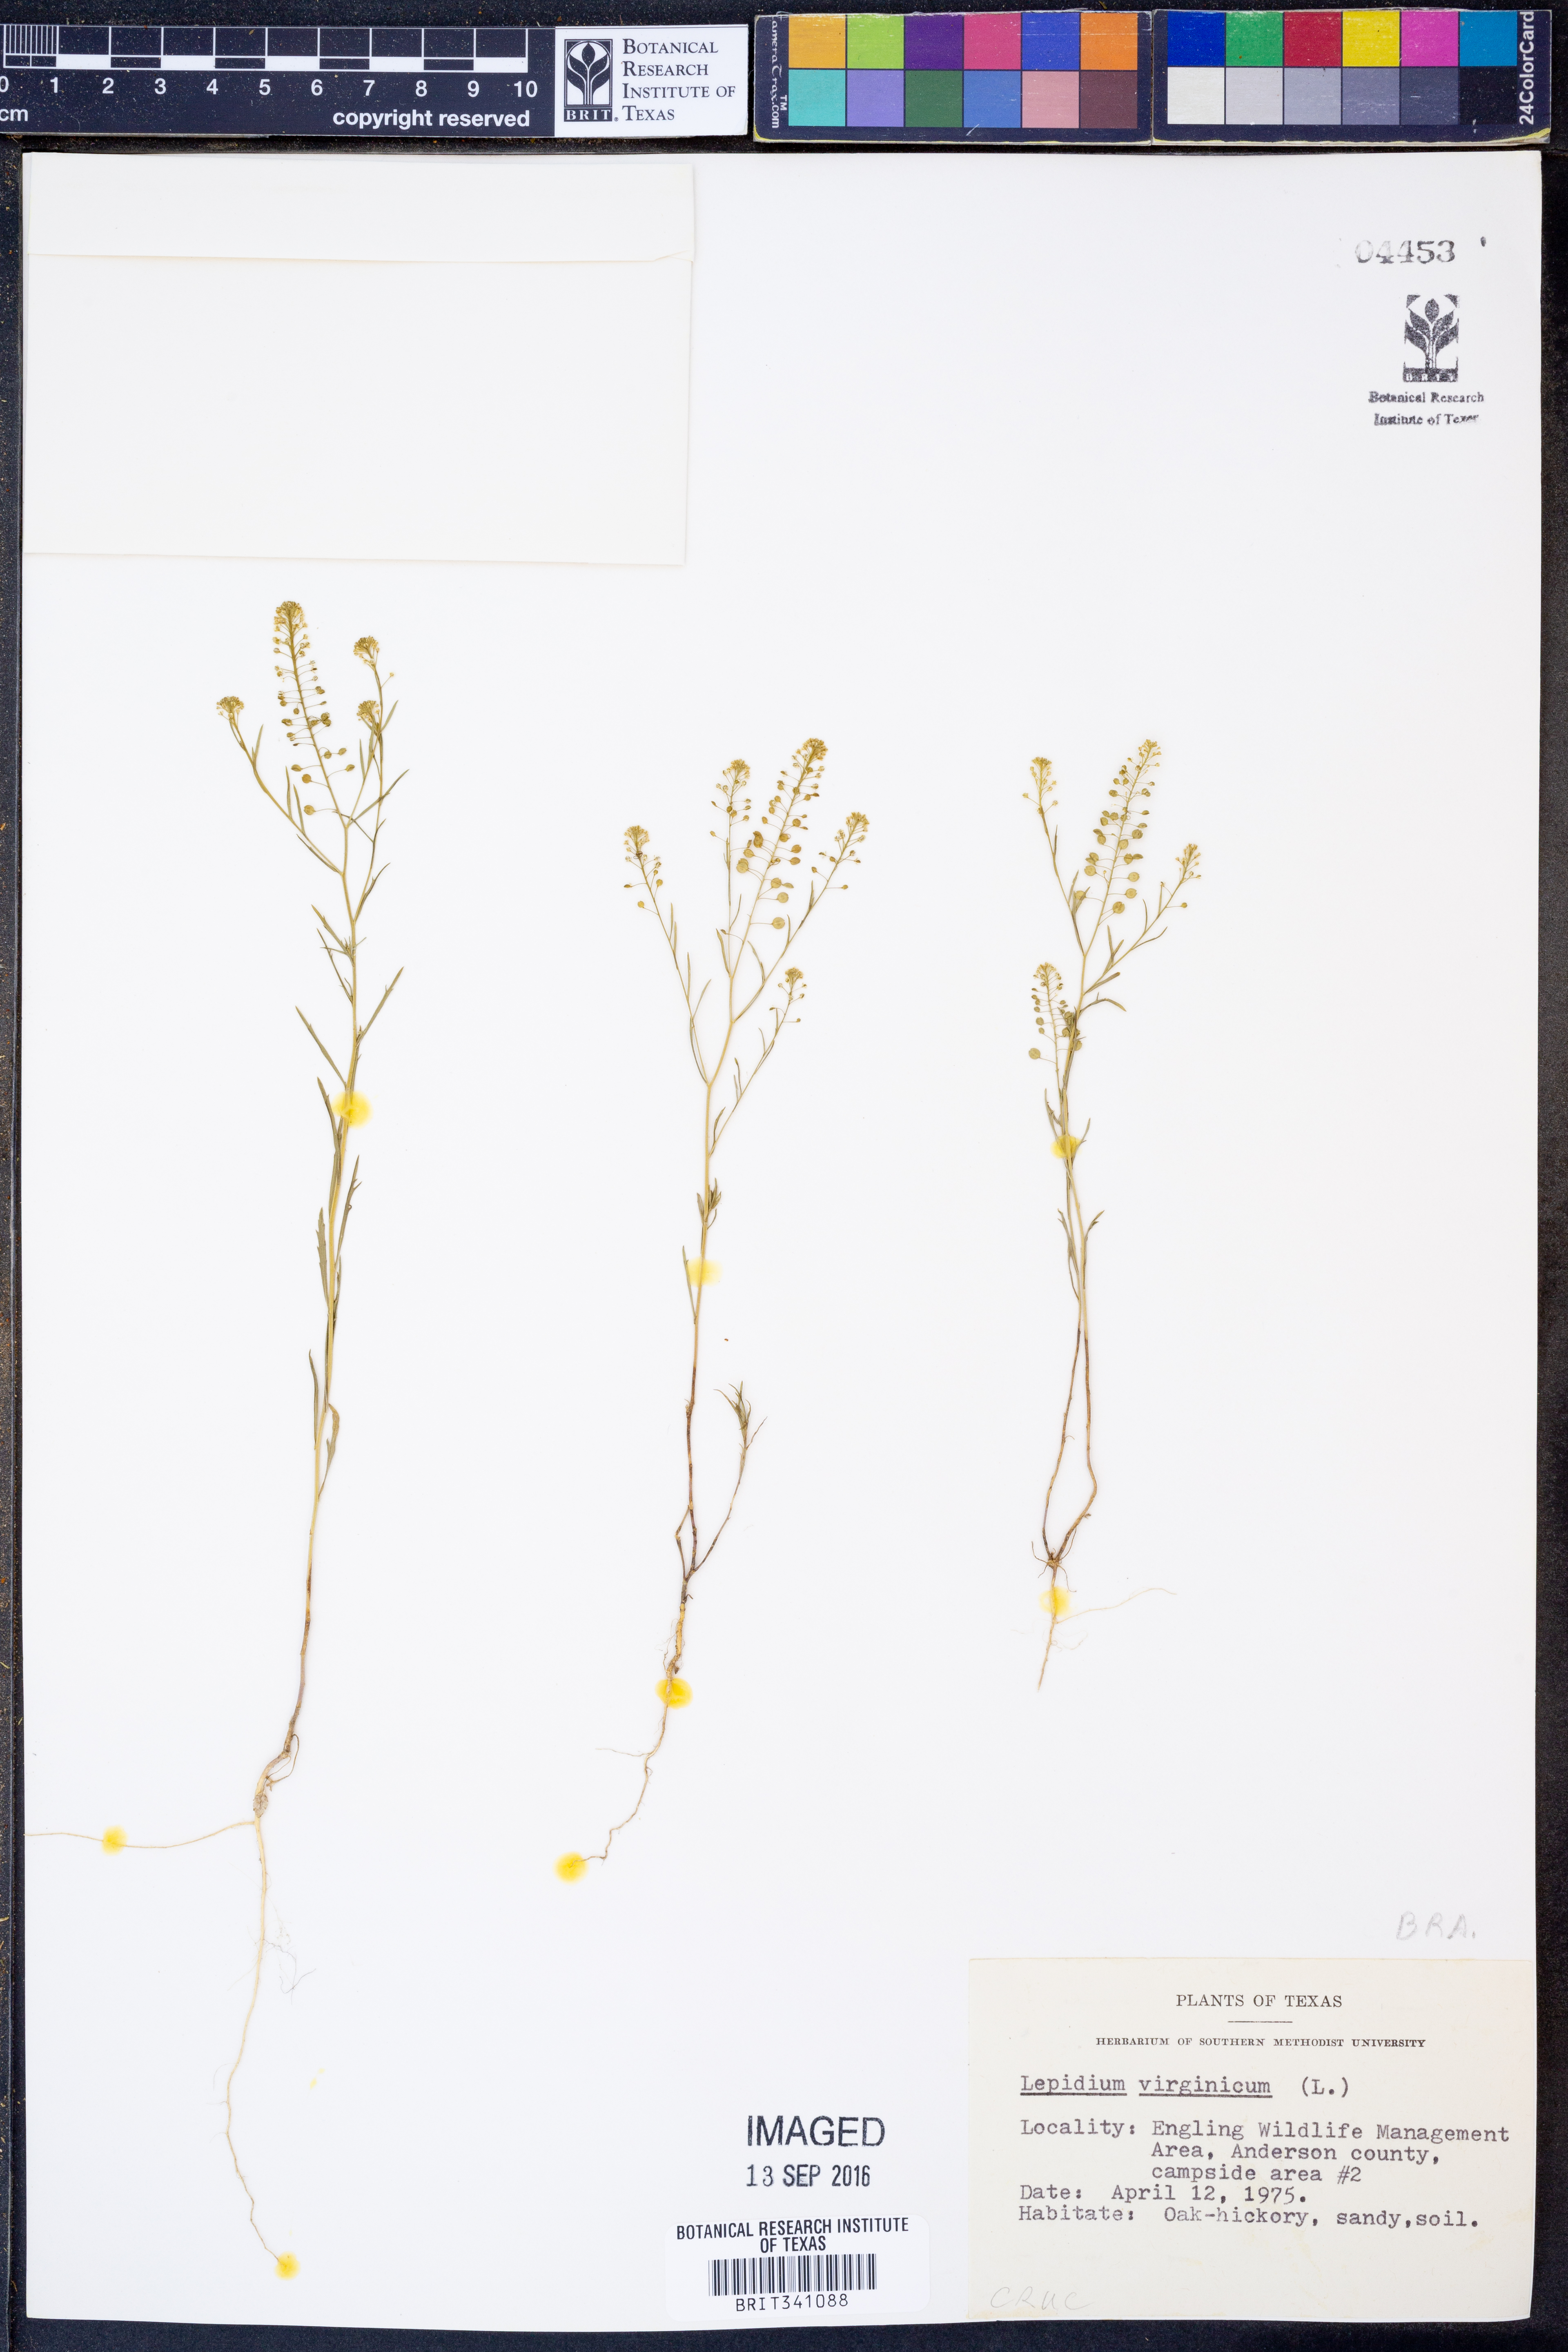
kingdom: Plantae
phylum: Tracheophyta
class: Magnoliopsida
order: Brassicales
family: Brassicaceae
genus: Lepidium
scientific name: Lepidium virginicum
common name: Least pepperwort
